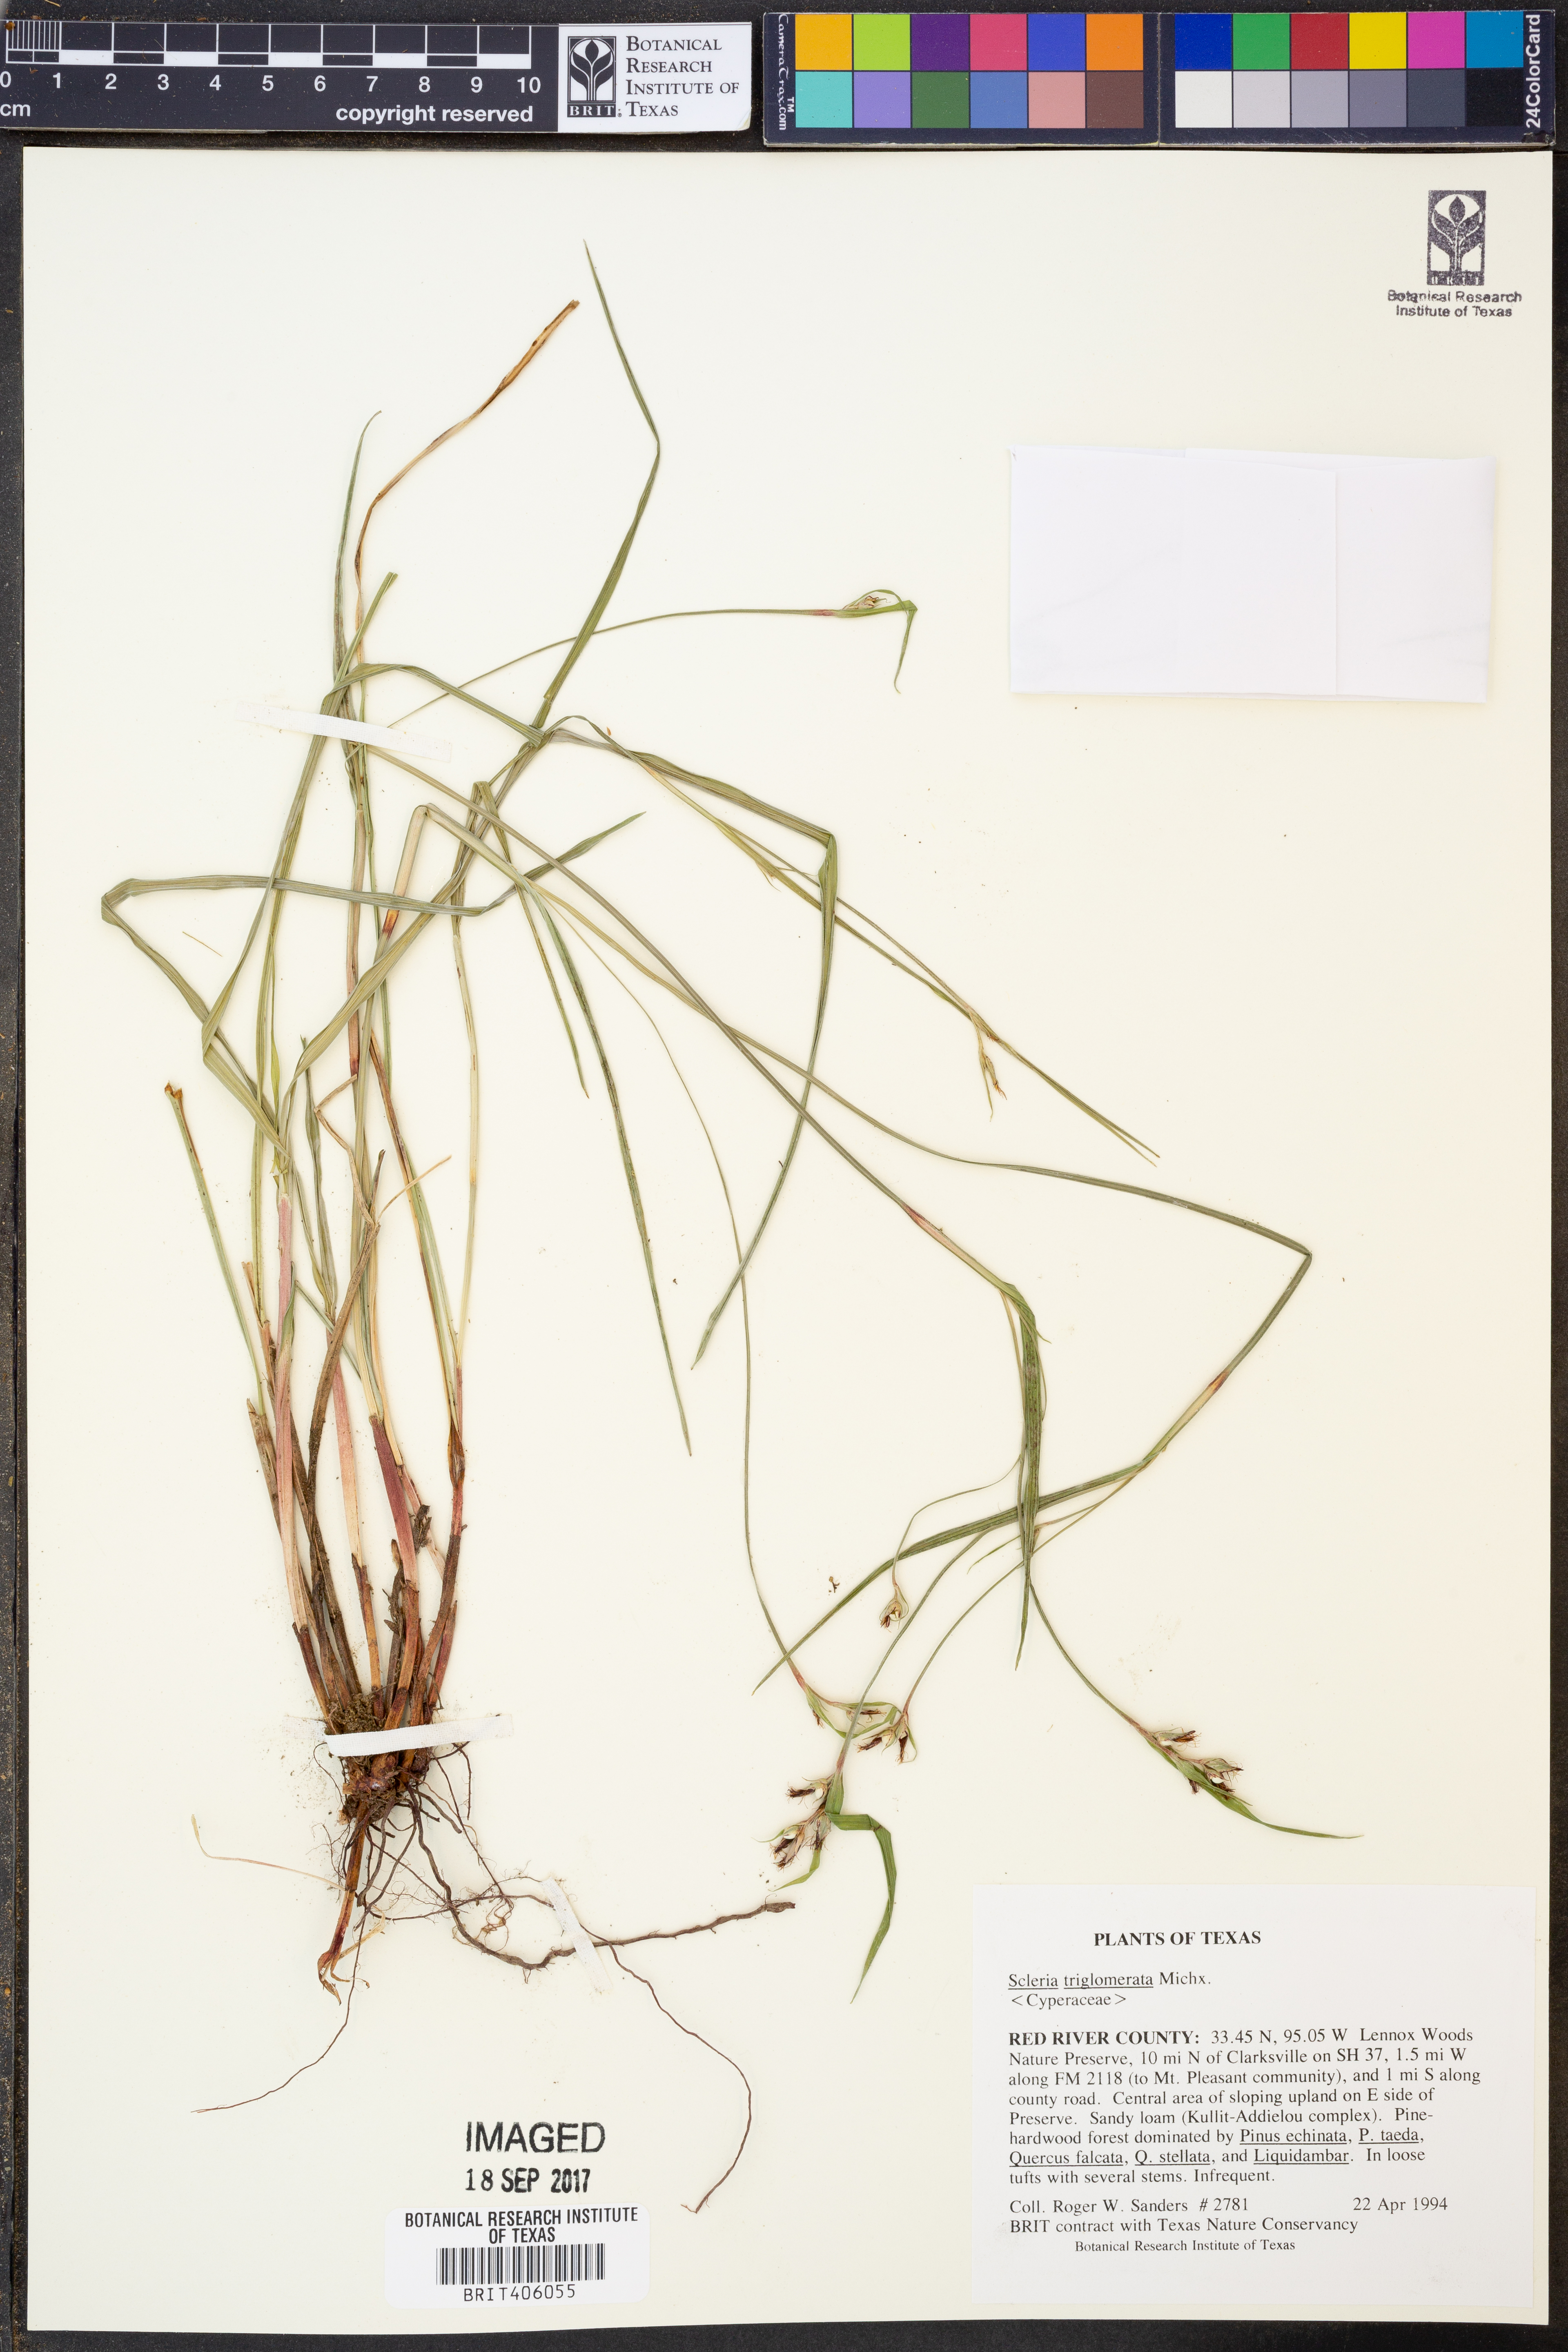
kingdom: Plantae
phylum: Tracheophyta
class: Liliopsida
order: Poales
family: Cyperaceae
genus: Scleria
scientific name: Scleria triglomerata
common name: Whip nutrush
